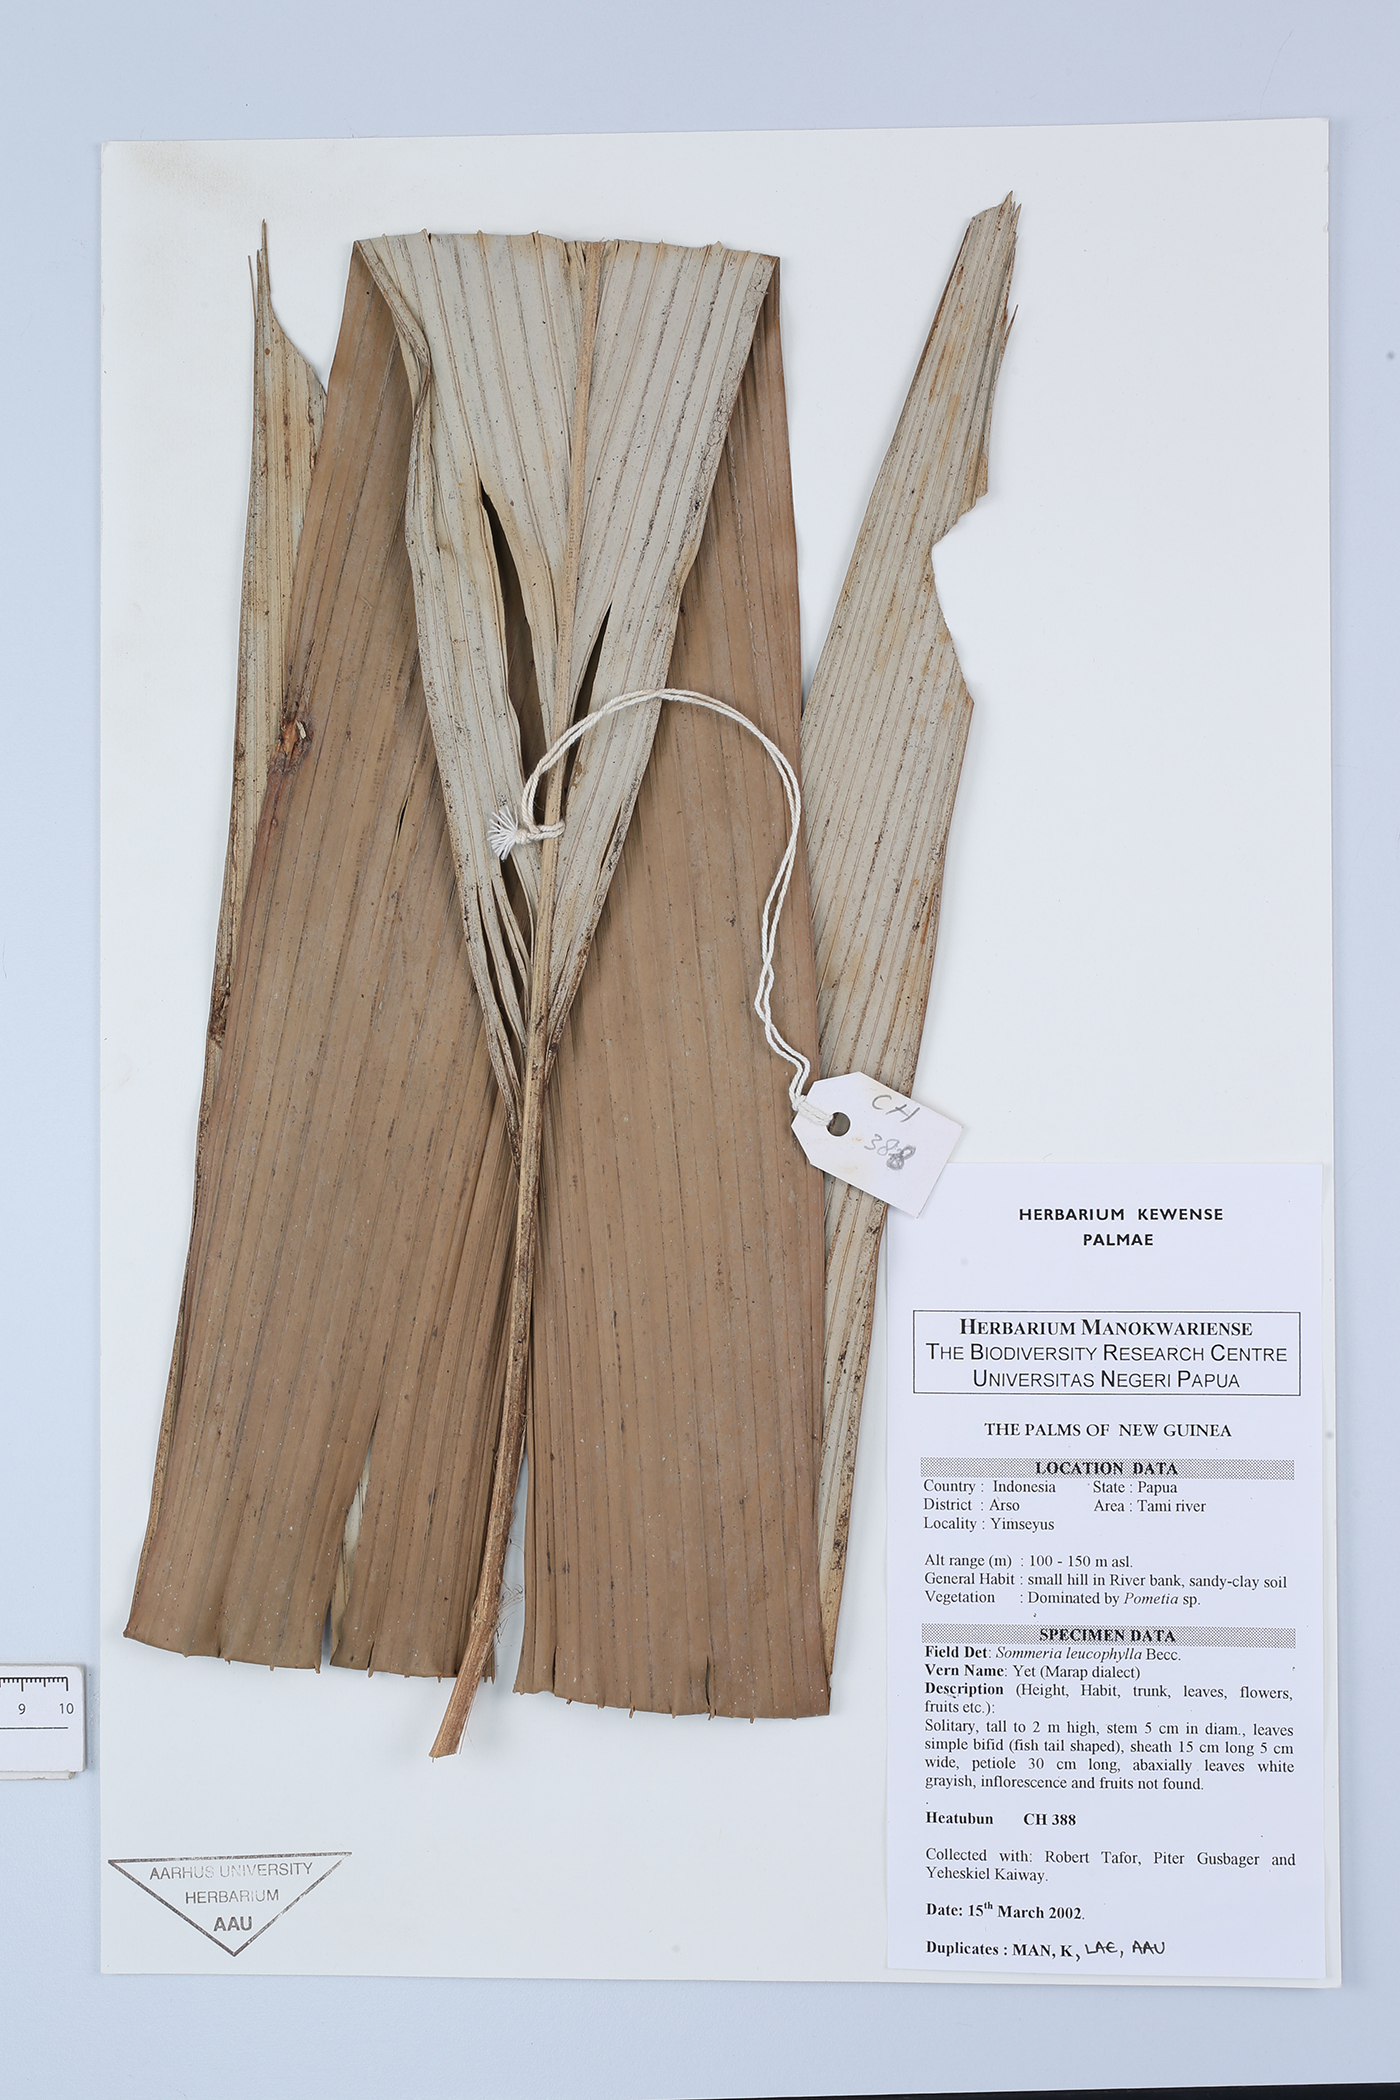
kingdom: Plantae
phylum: Tracheophyta
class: Liliopsida
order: Arecales
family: Arecaceae
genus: Sommieria
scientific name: Sommieria leucophylla
